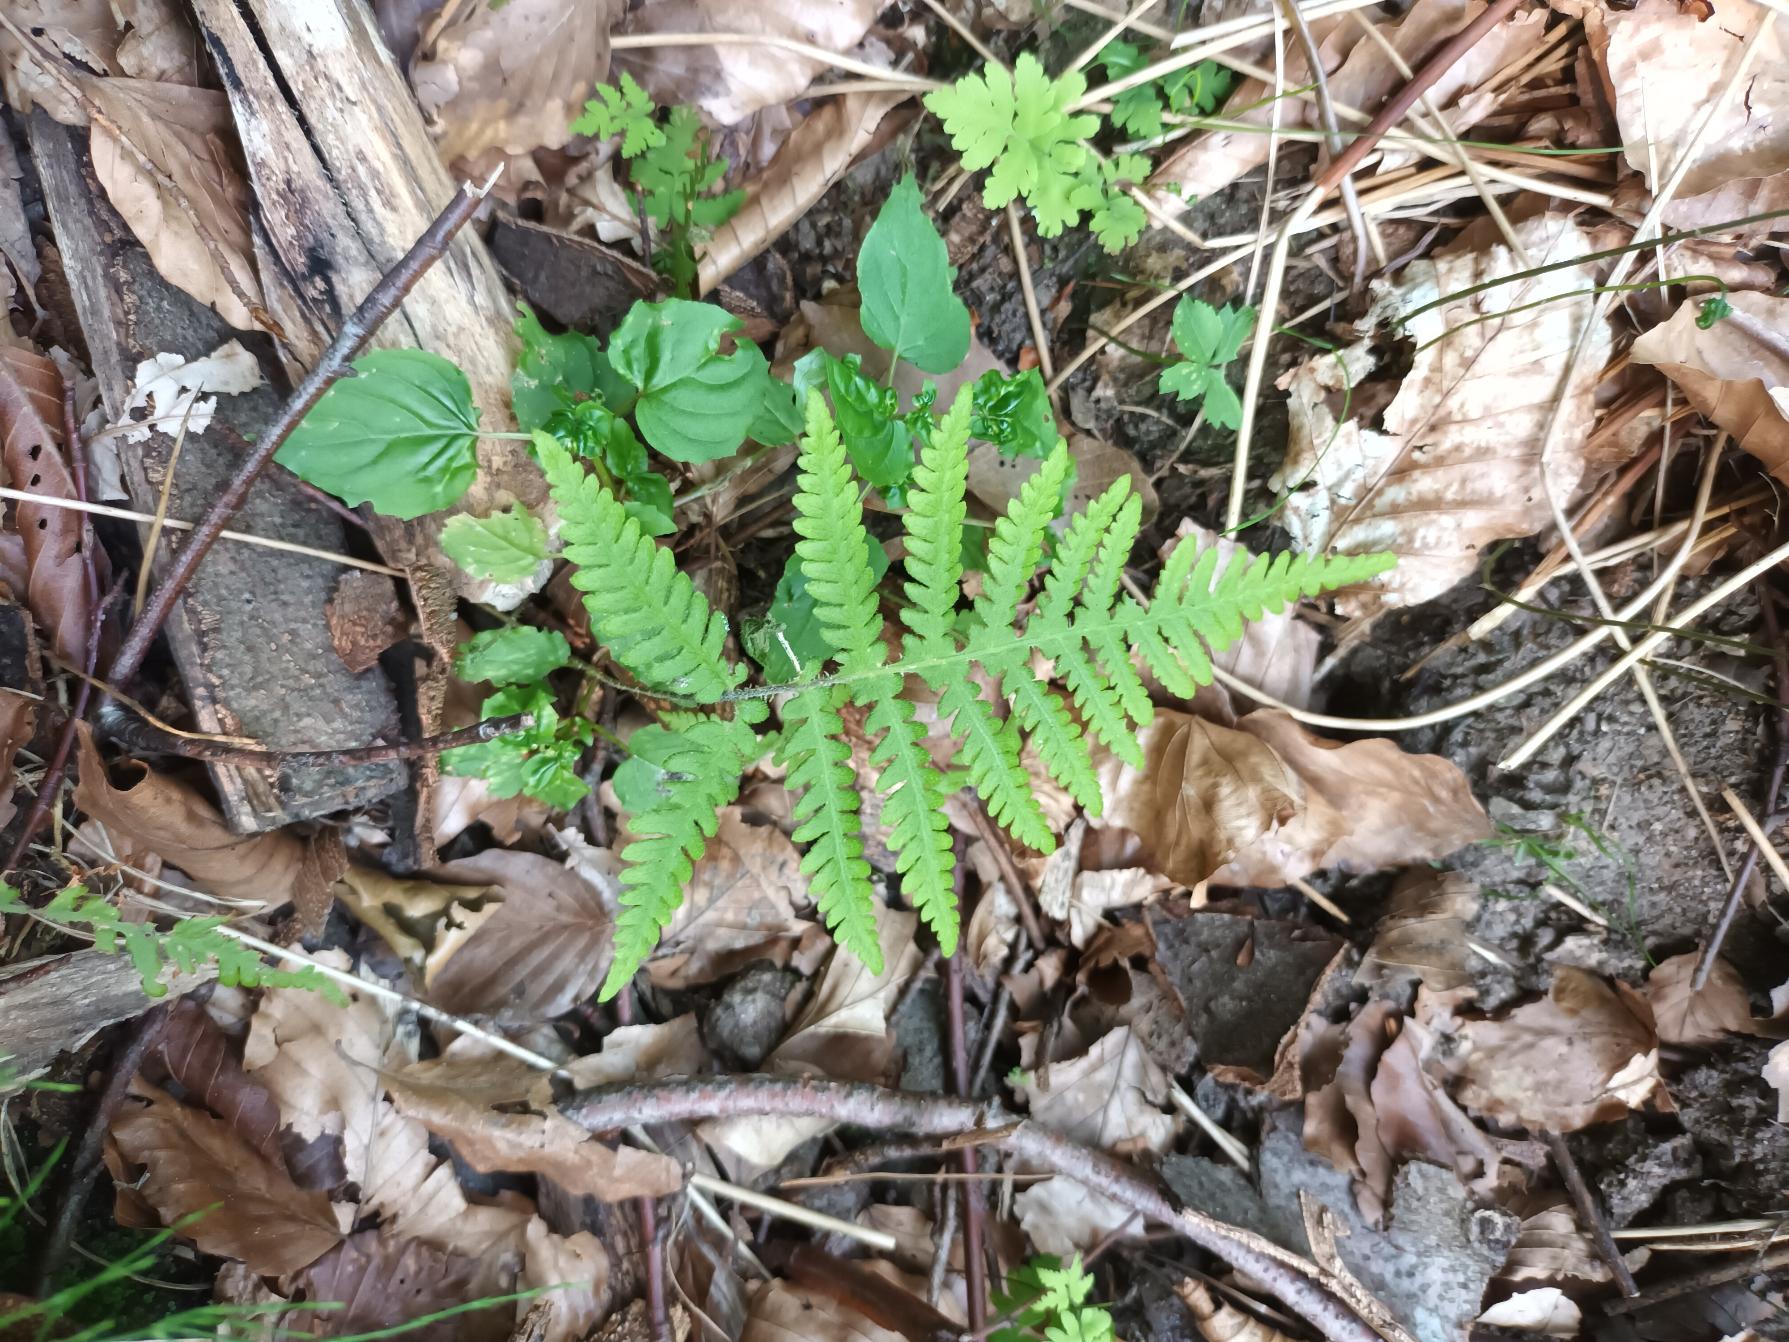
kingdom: Plantae
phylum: Tracheophyta
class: Polypodiopsida
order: Polypodiales
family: Thelypteridaceae
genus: Phegopteris
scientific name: Phegopteris connectilis
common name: Dunet egebregne
